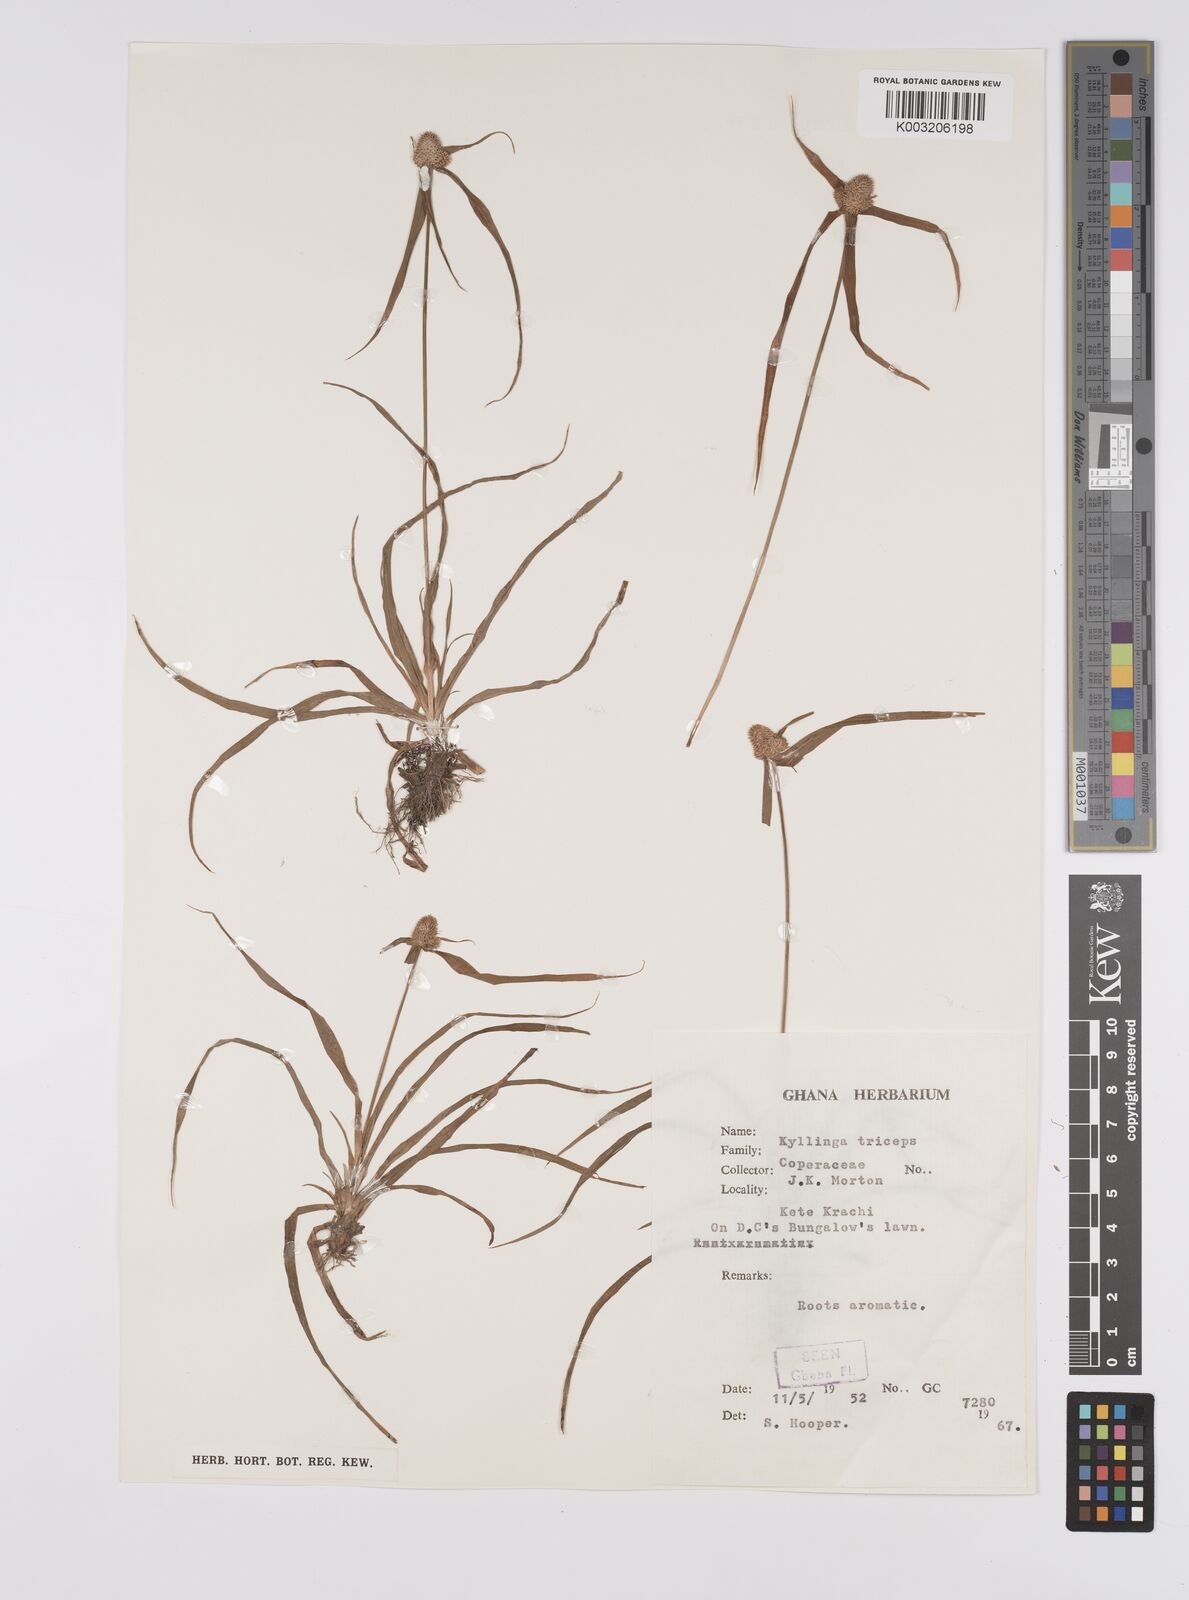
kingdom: Plantae
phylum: Tracheophyta
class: Liliopsida
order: Poales
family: Cyperaceae
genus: Cyperus
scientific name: Cyperus
